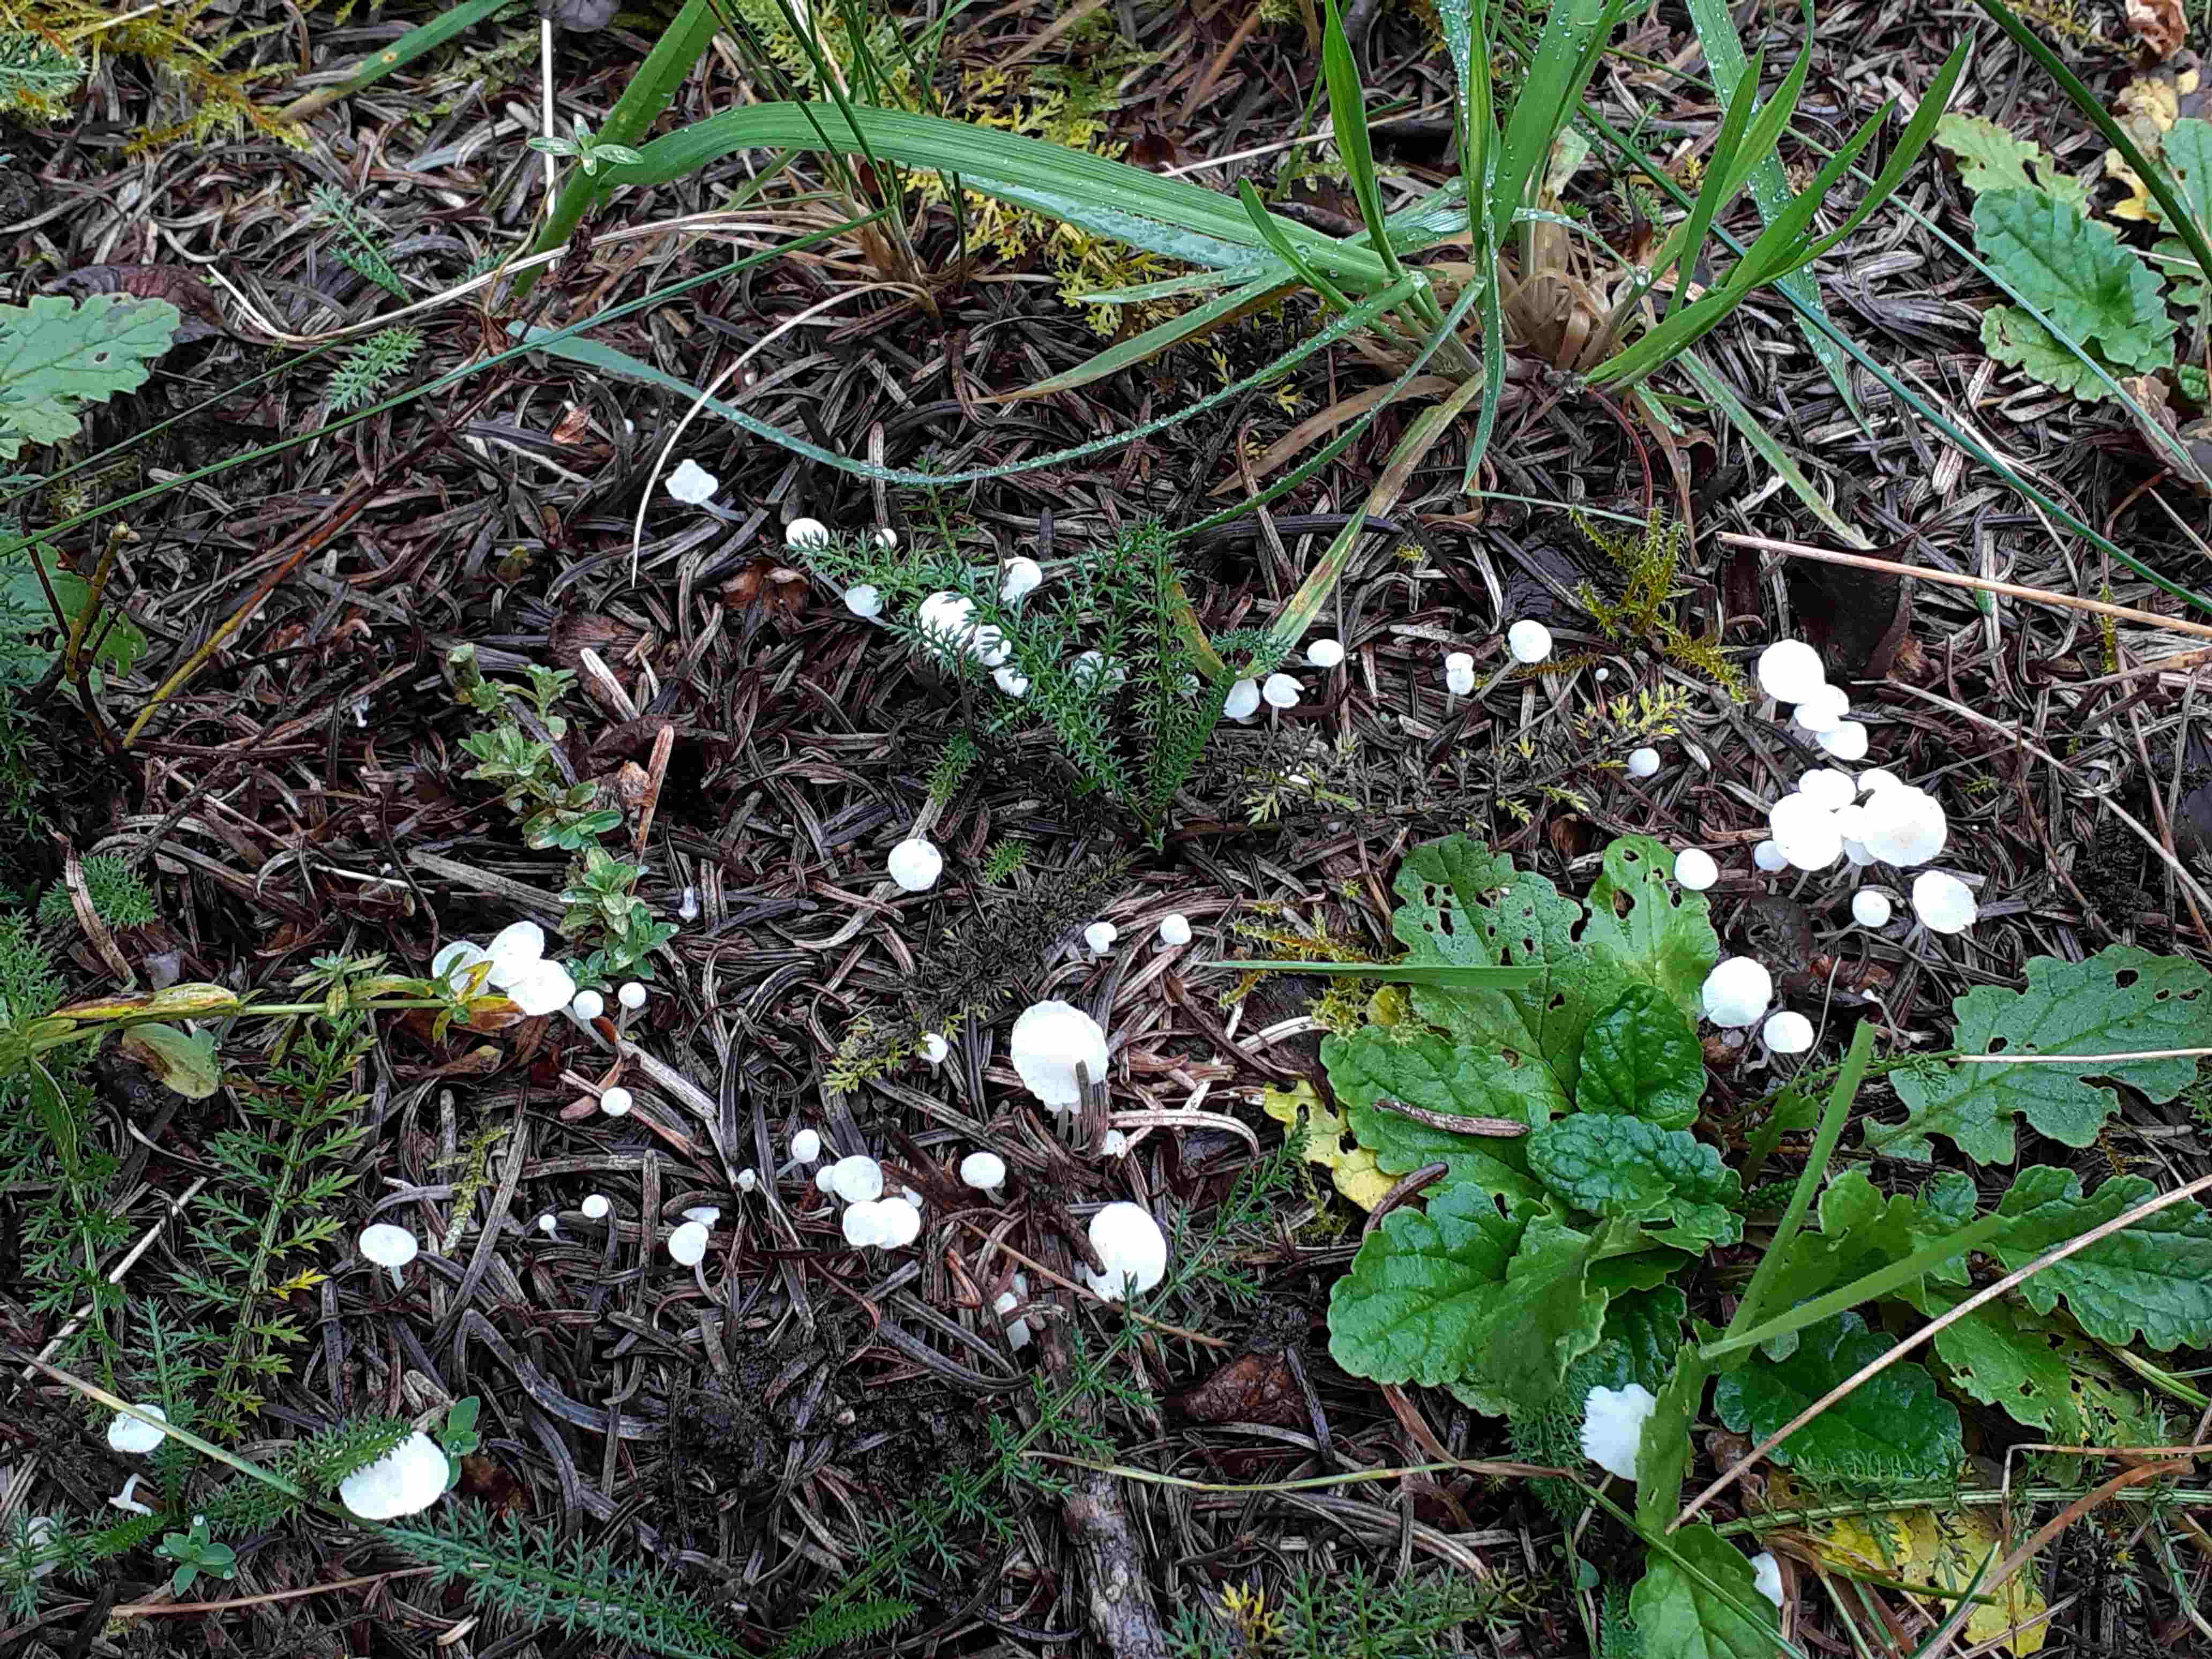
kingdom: Fungi
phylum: Basidiomycota
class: Agaricomycetes
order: Agaricales
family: Mycenaceae
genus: Hemimycena
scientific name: Hemimycena lactea
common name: mælkehvid huesvamp
